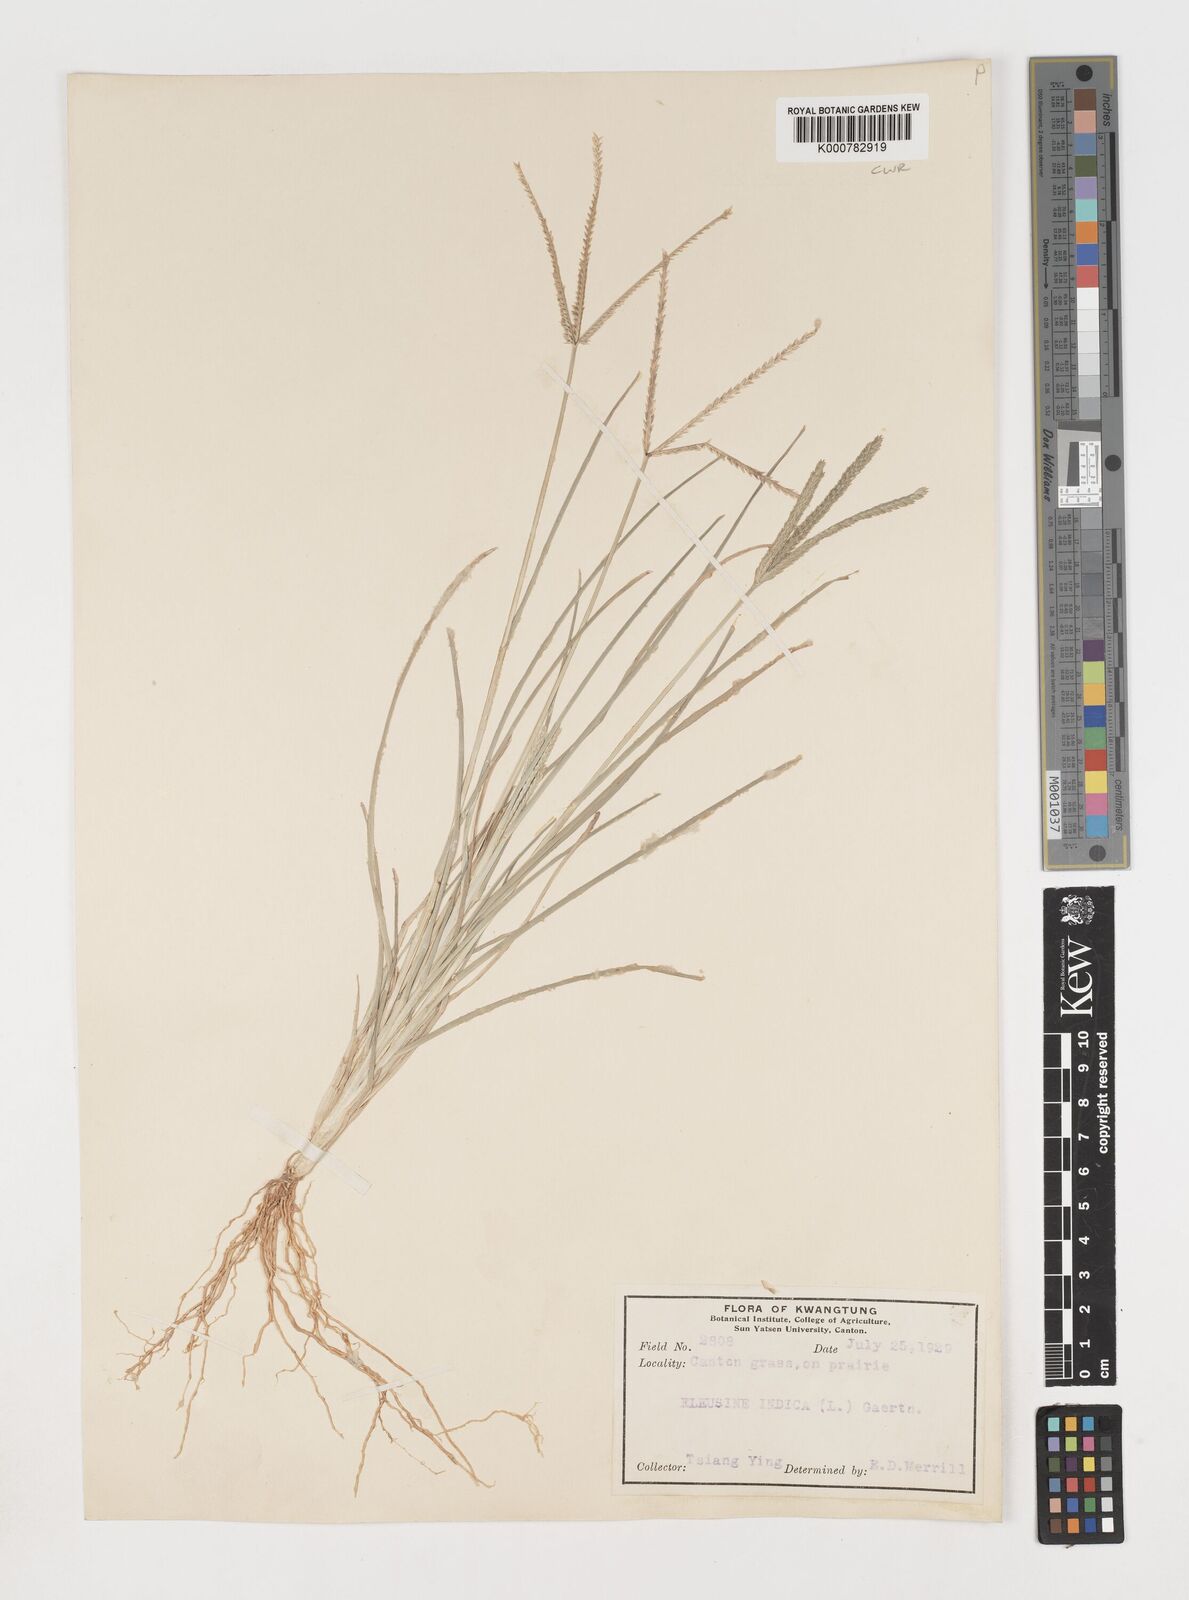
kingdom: Plantae
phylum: Tracheophyta
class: Liliopsida
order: Poales
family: Poaceae
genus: Eleusine
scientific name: Eleusine indica
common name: Yard-grass
